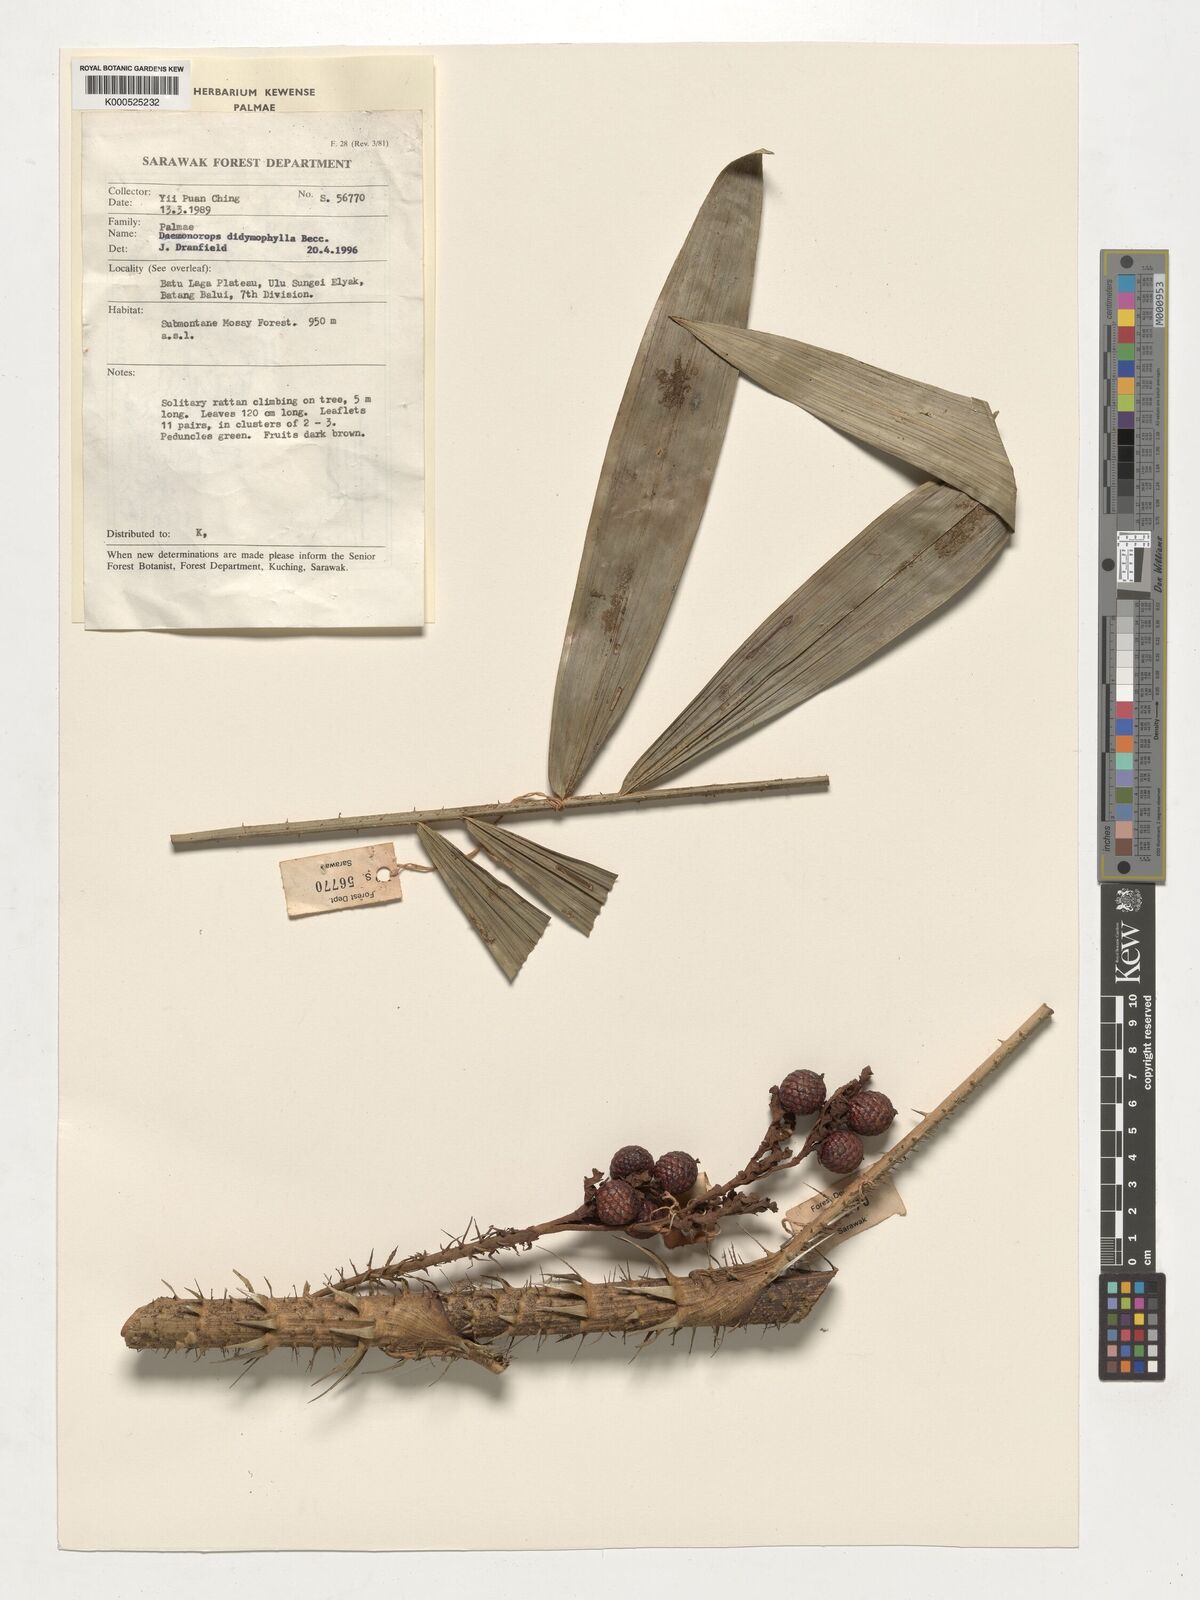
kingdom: Plantae
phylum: Tracheophyta
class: Liliopsida
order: Arecales
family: Arecaceae
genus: Calamus
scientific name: Calamus gracilipes
